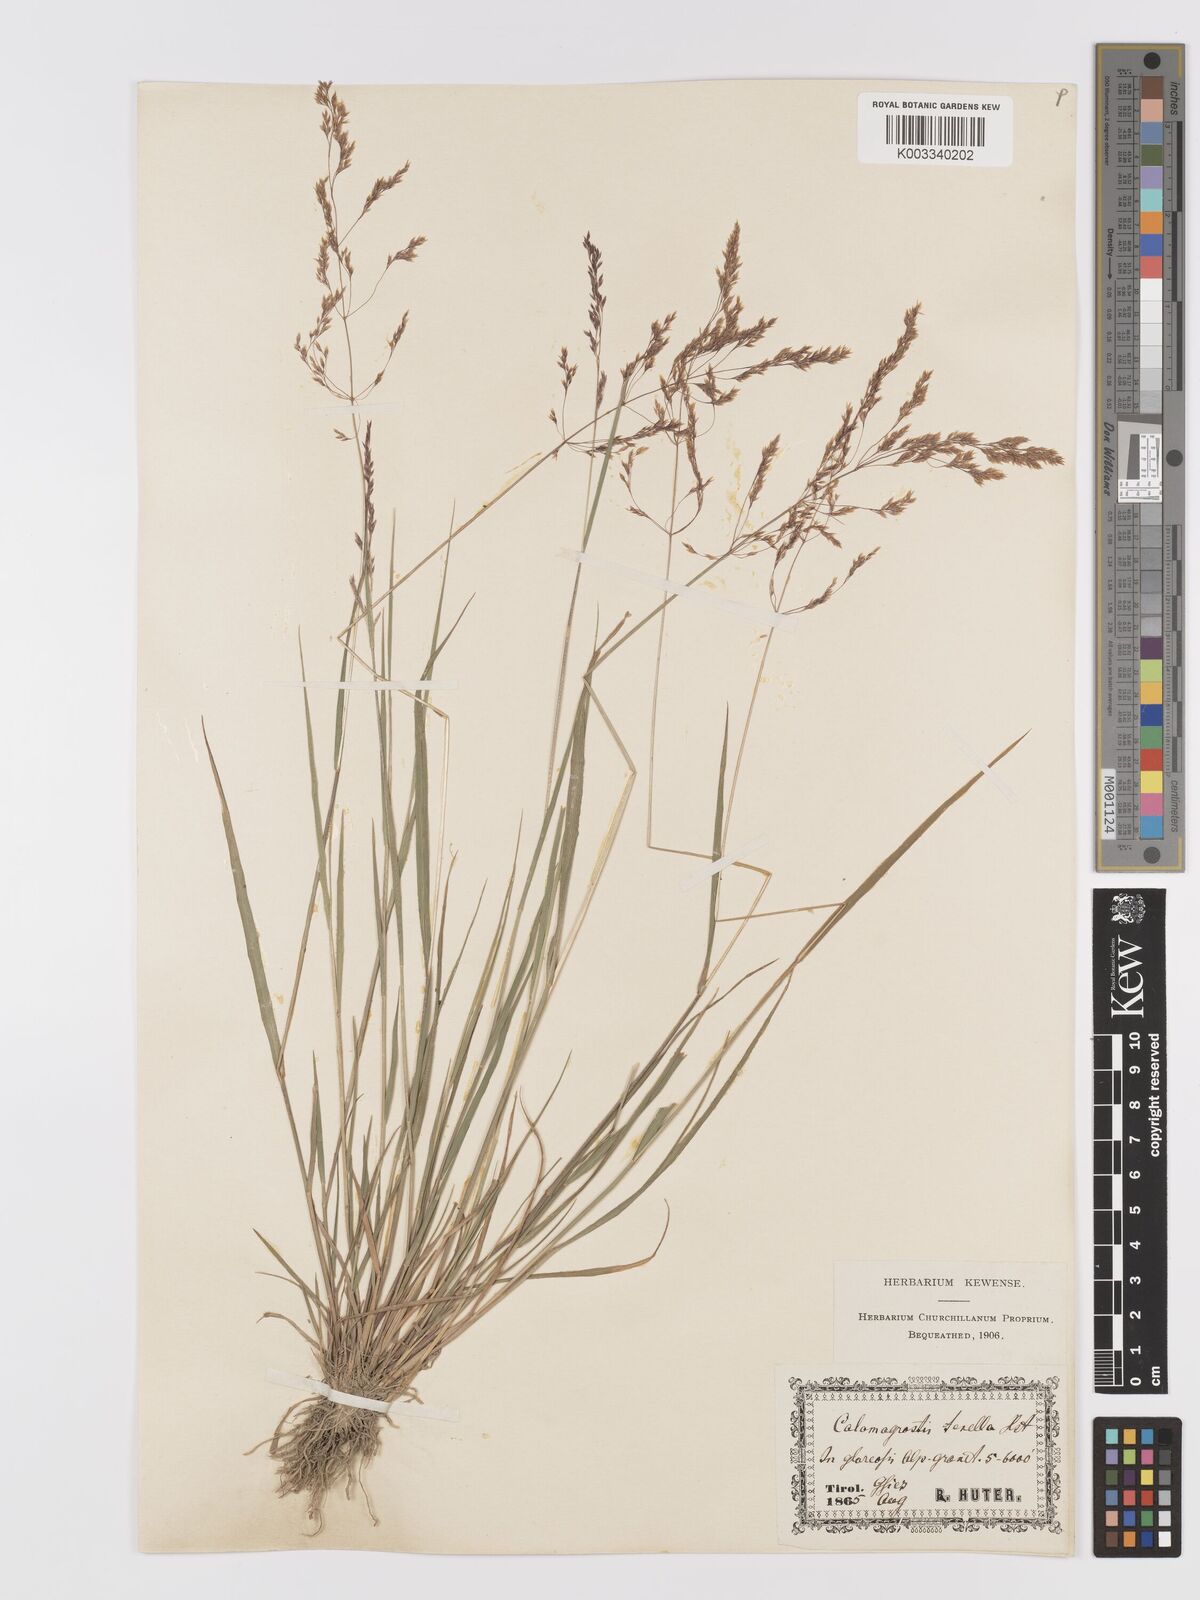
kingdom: Plantae
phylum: Tracheophyta
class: Liliopsida
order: Poales
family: Poaceae
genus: Agrostis
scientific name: Agrostis schraderiana
